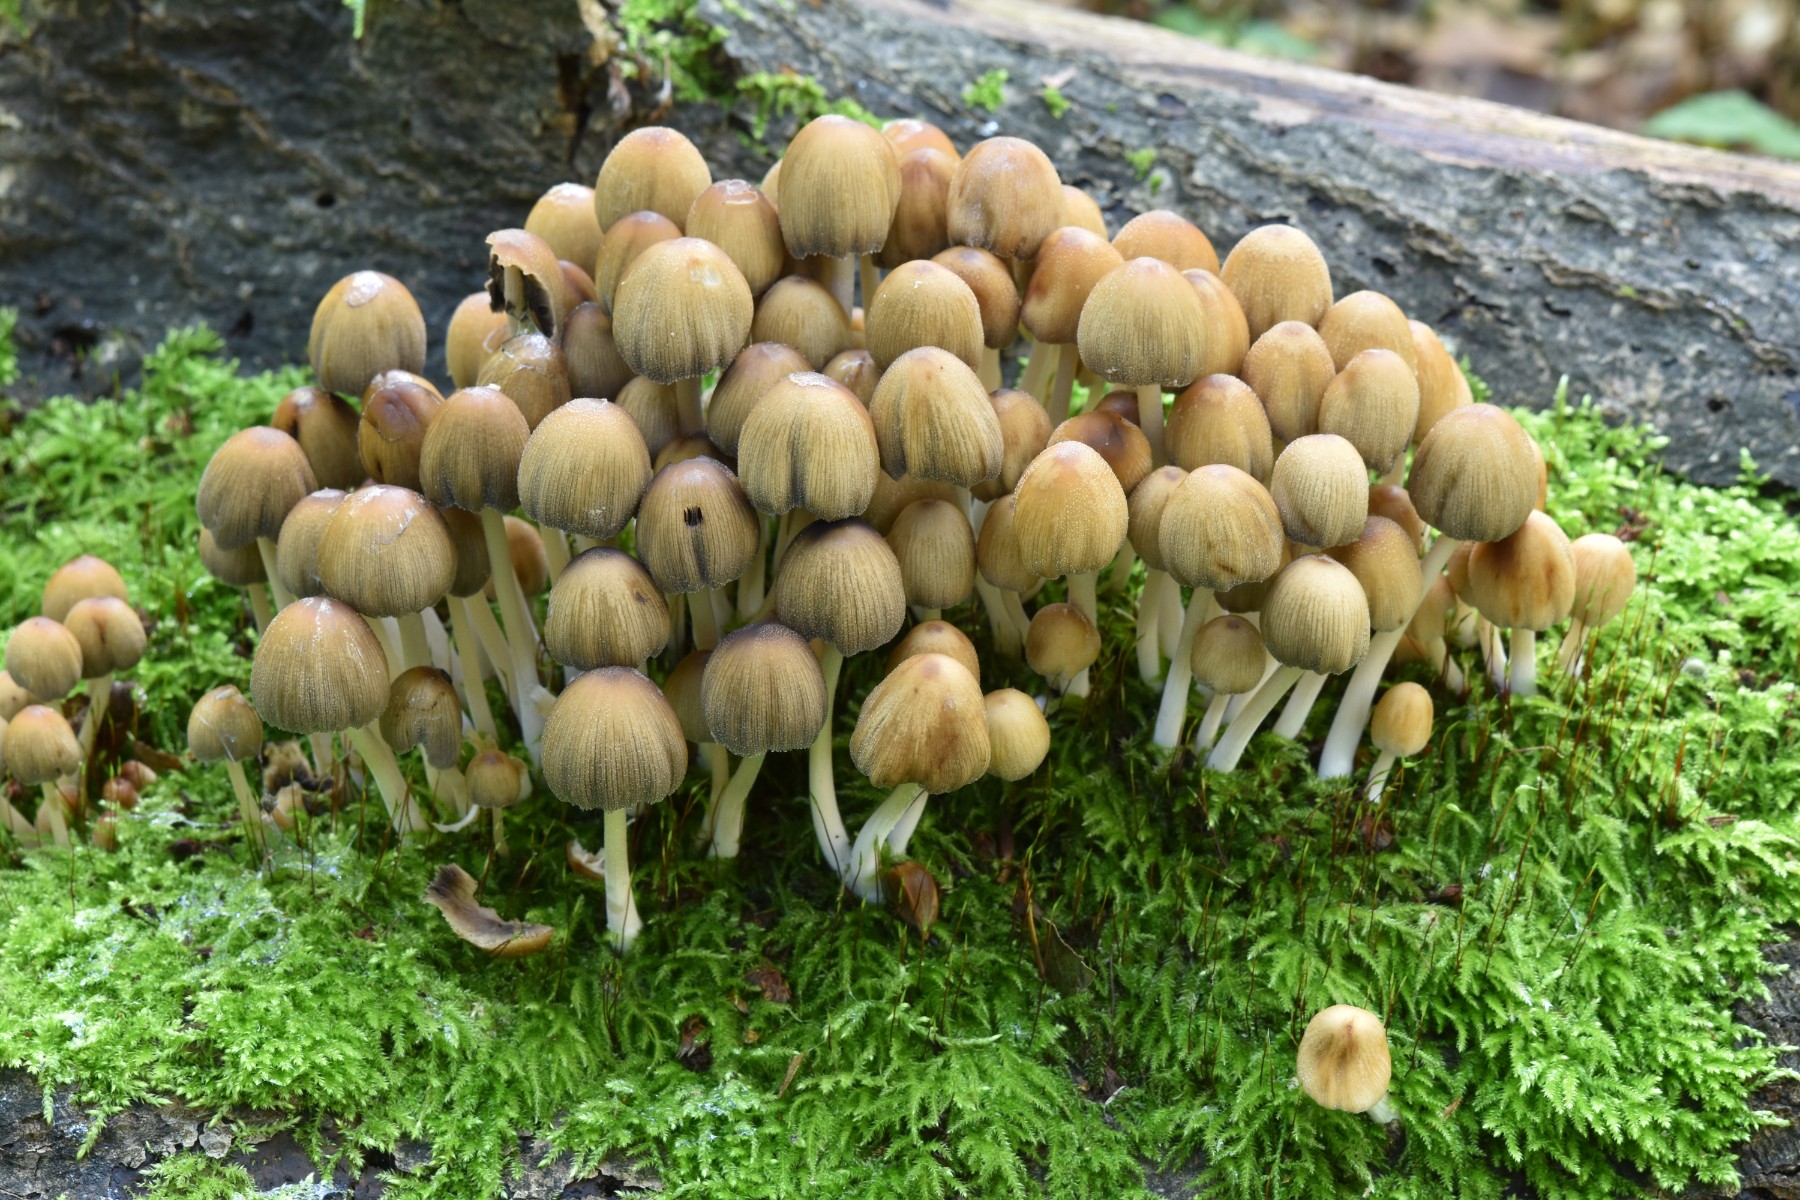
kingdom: Fungi
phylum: Basidiomycota
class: Agaricomycetes
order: Agaricales
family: Psathyrellaceae
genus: Coprinellus
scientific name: Coprinellus micaceus
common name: glimmer-blækhat
